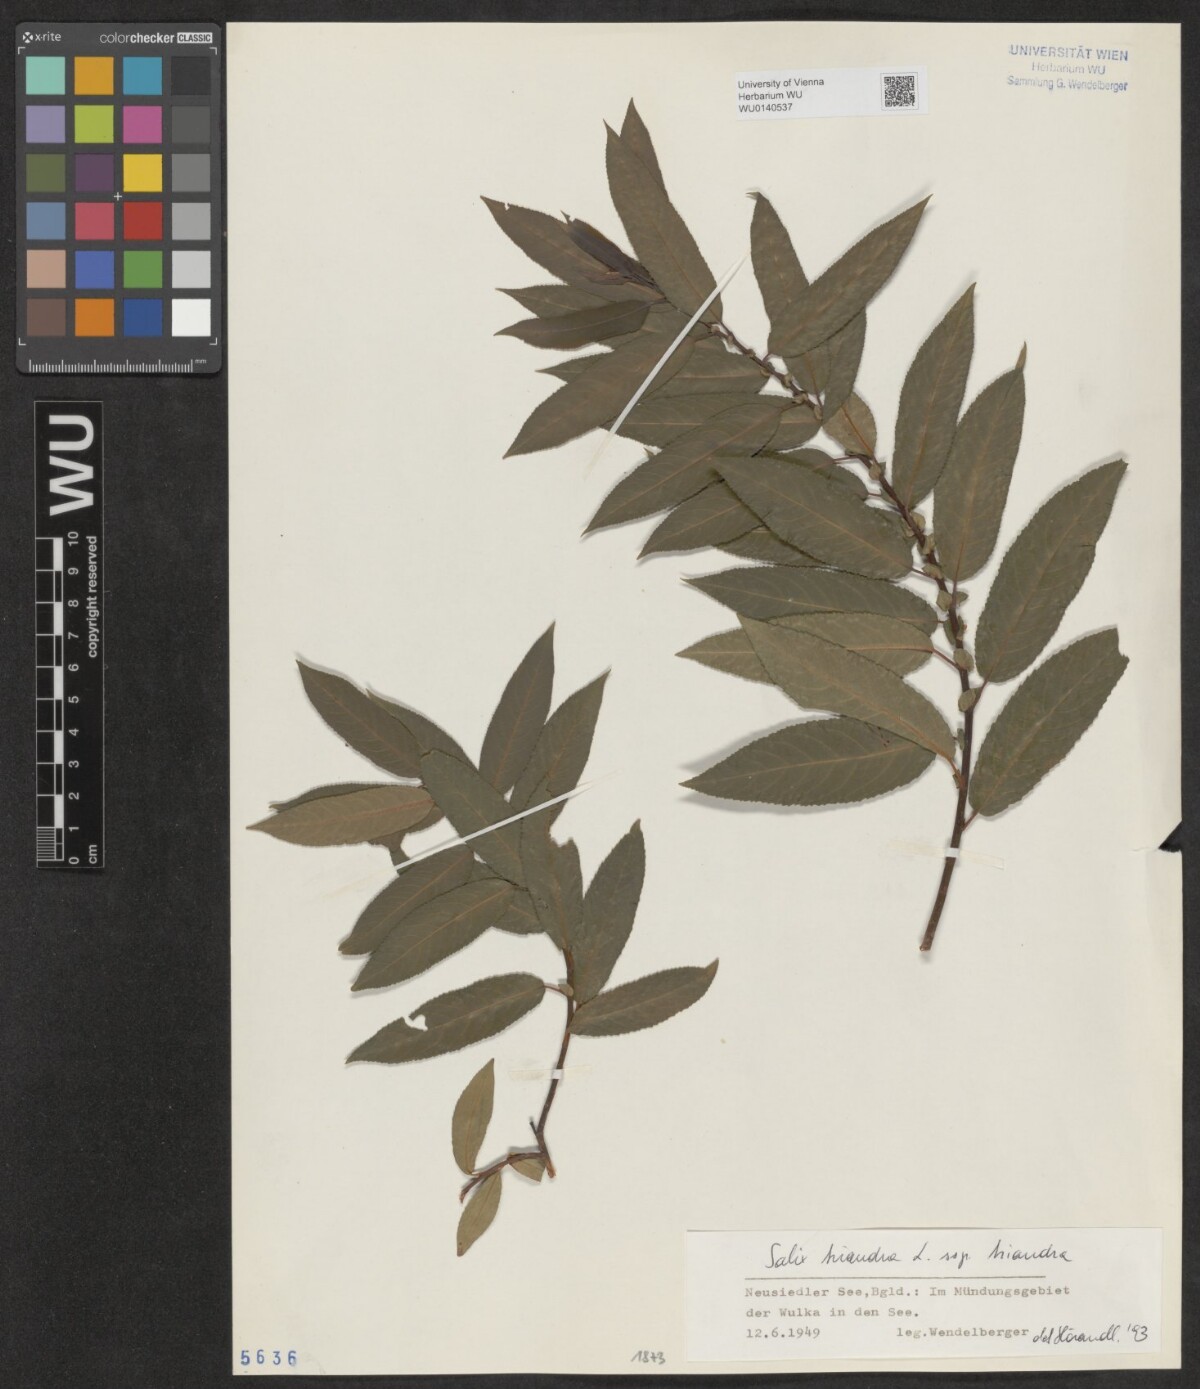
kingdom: Plantae
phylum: Tracheophyta
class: Magnoliopsida
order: Malpighiales
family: Salicaceae
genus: Salix
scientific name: Salix triandra
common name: Almond willow
